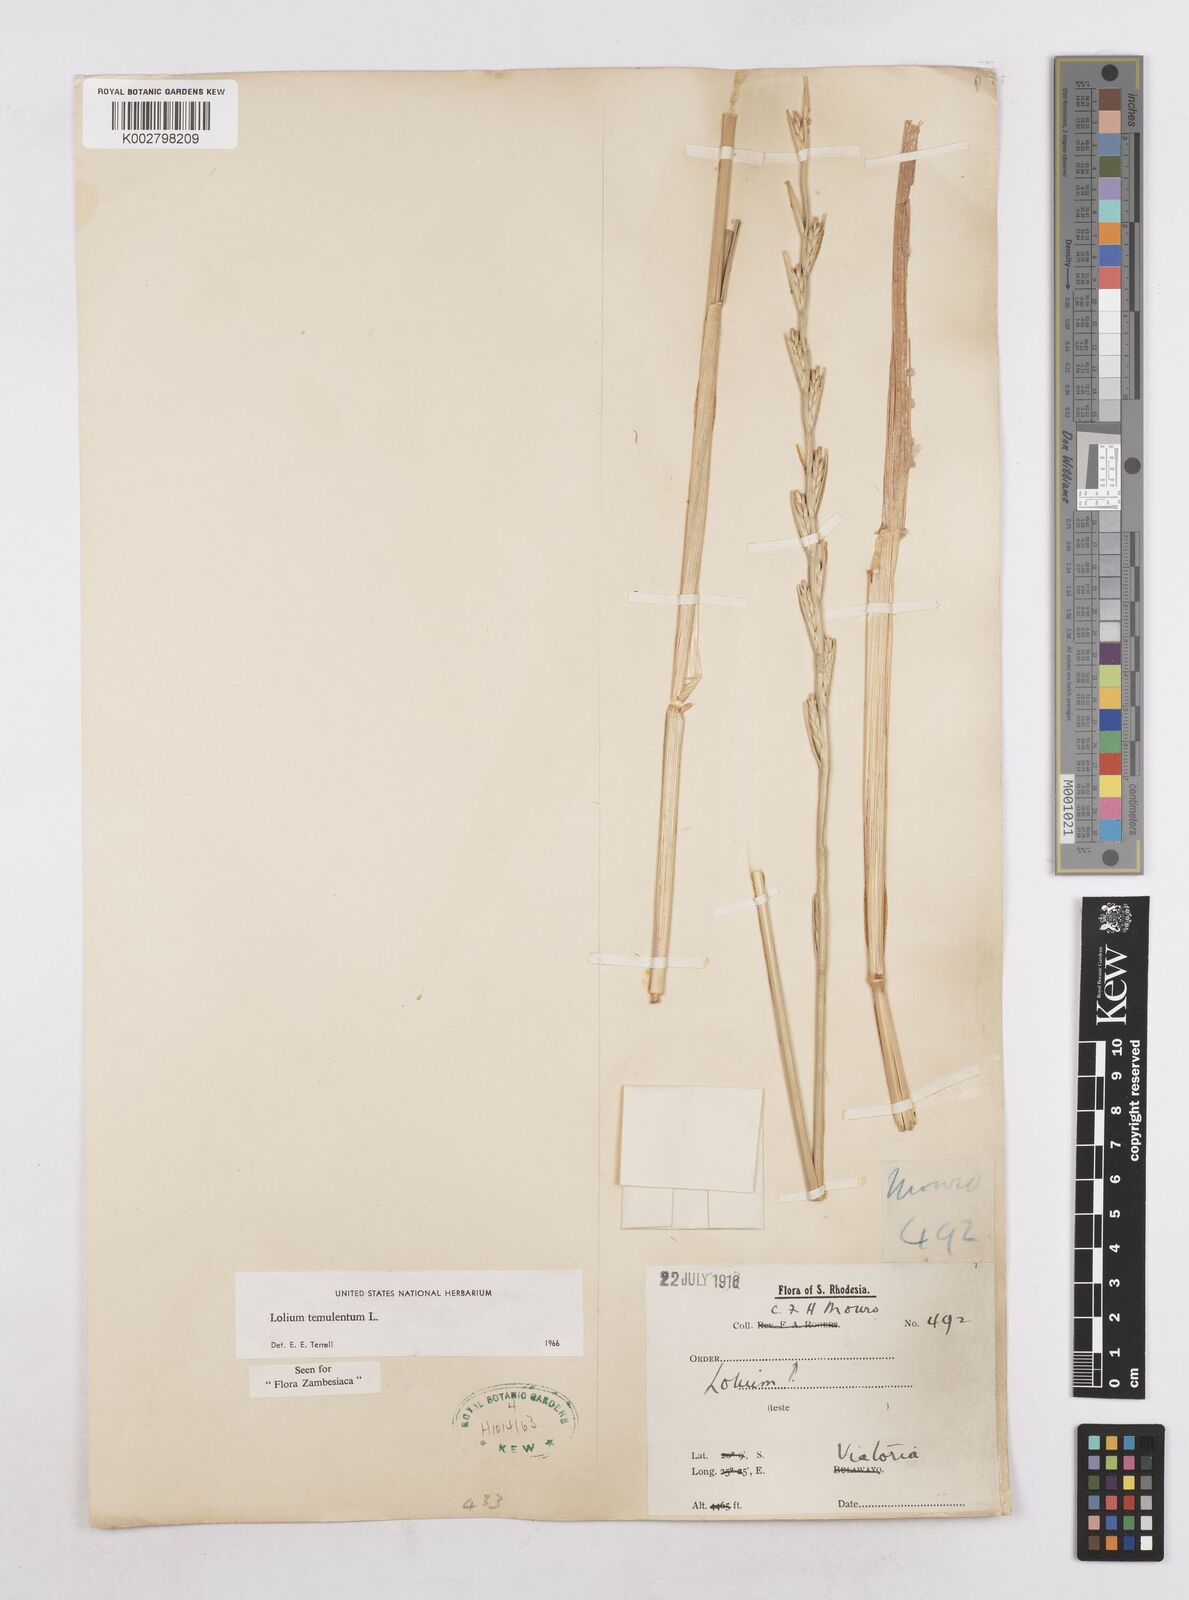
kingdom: Plantae
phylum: Tracheophyta
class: Liliopsida
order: Poales
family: Poaceae
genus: Lolium
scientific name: Lolium temulentum
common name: Darnel
